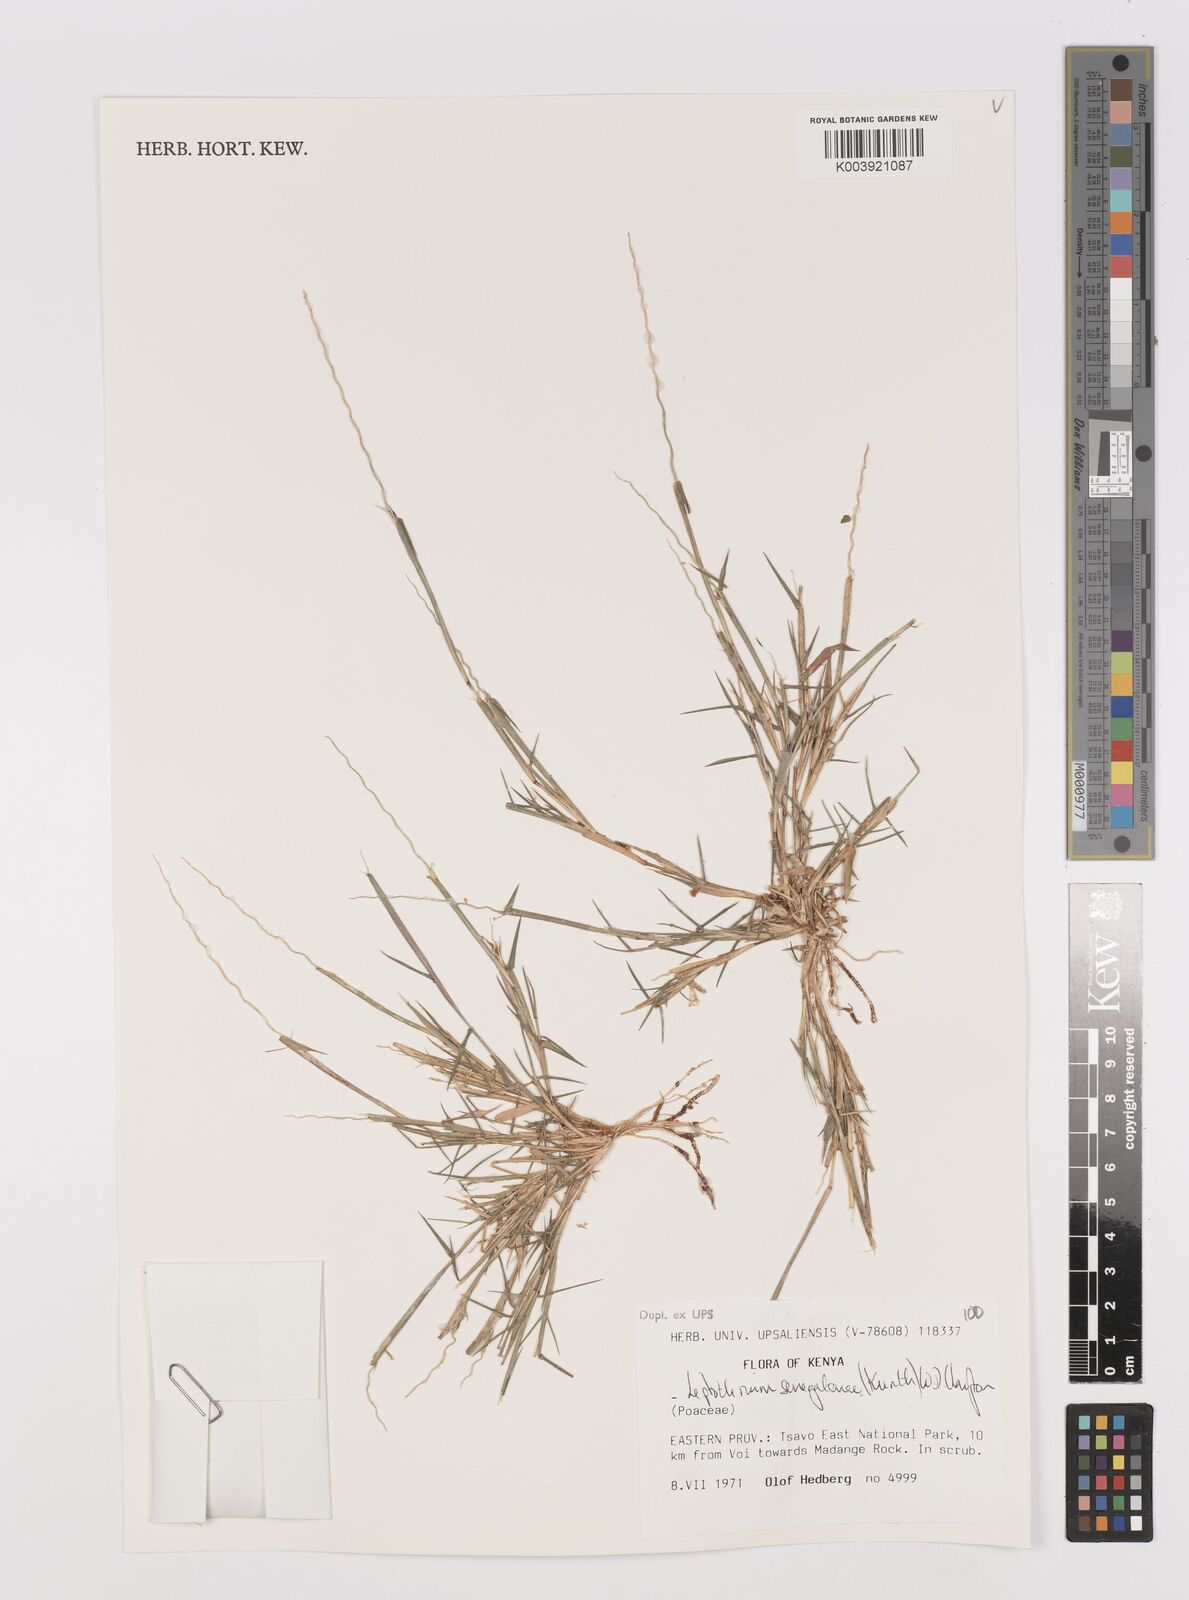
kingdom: Plantae
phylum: Tracheophyta
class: Liliopsida
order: Poales
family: Poaceae
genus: Leptothrium
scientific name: Leptothrium senegalense
